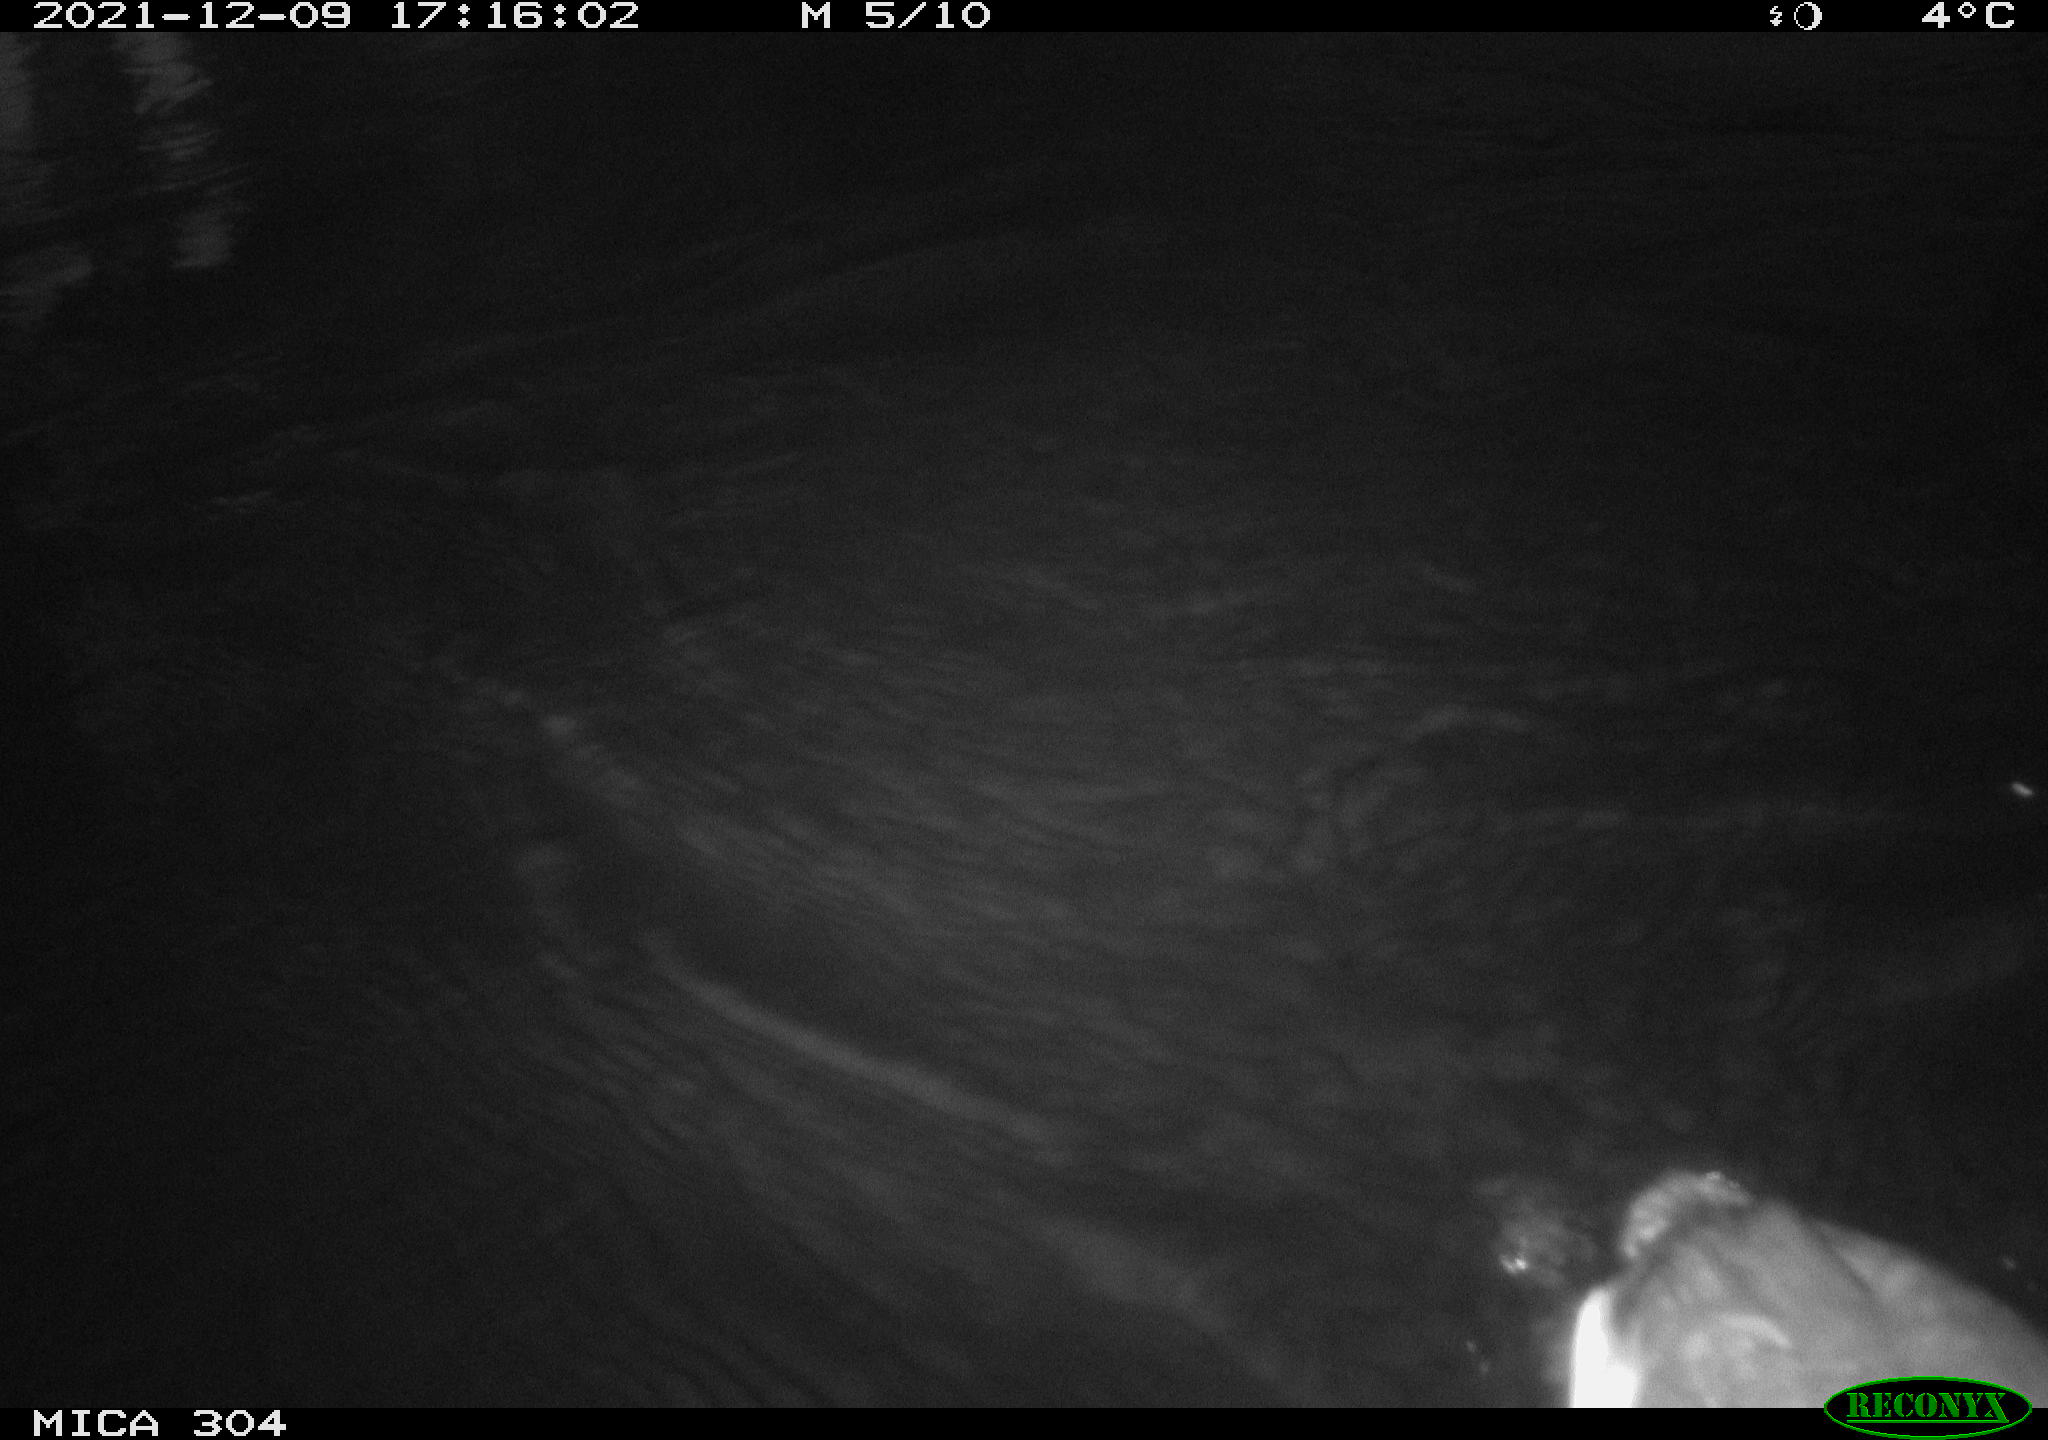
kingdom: Animalia
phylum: Chordata
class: Aves
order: Anseriformes
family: Anatidae
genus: Anas
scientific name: Anas
